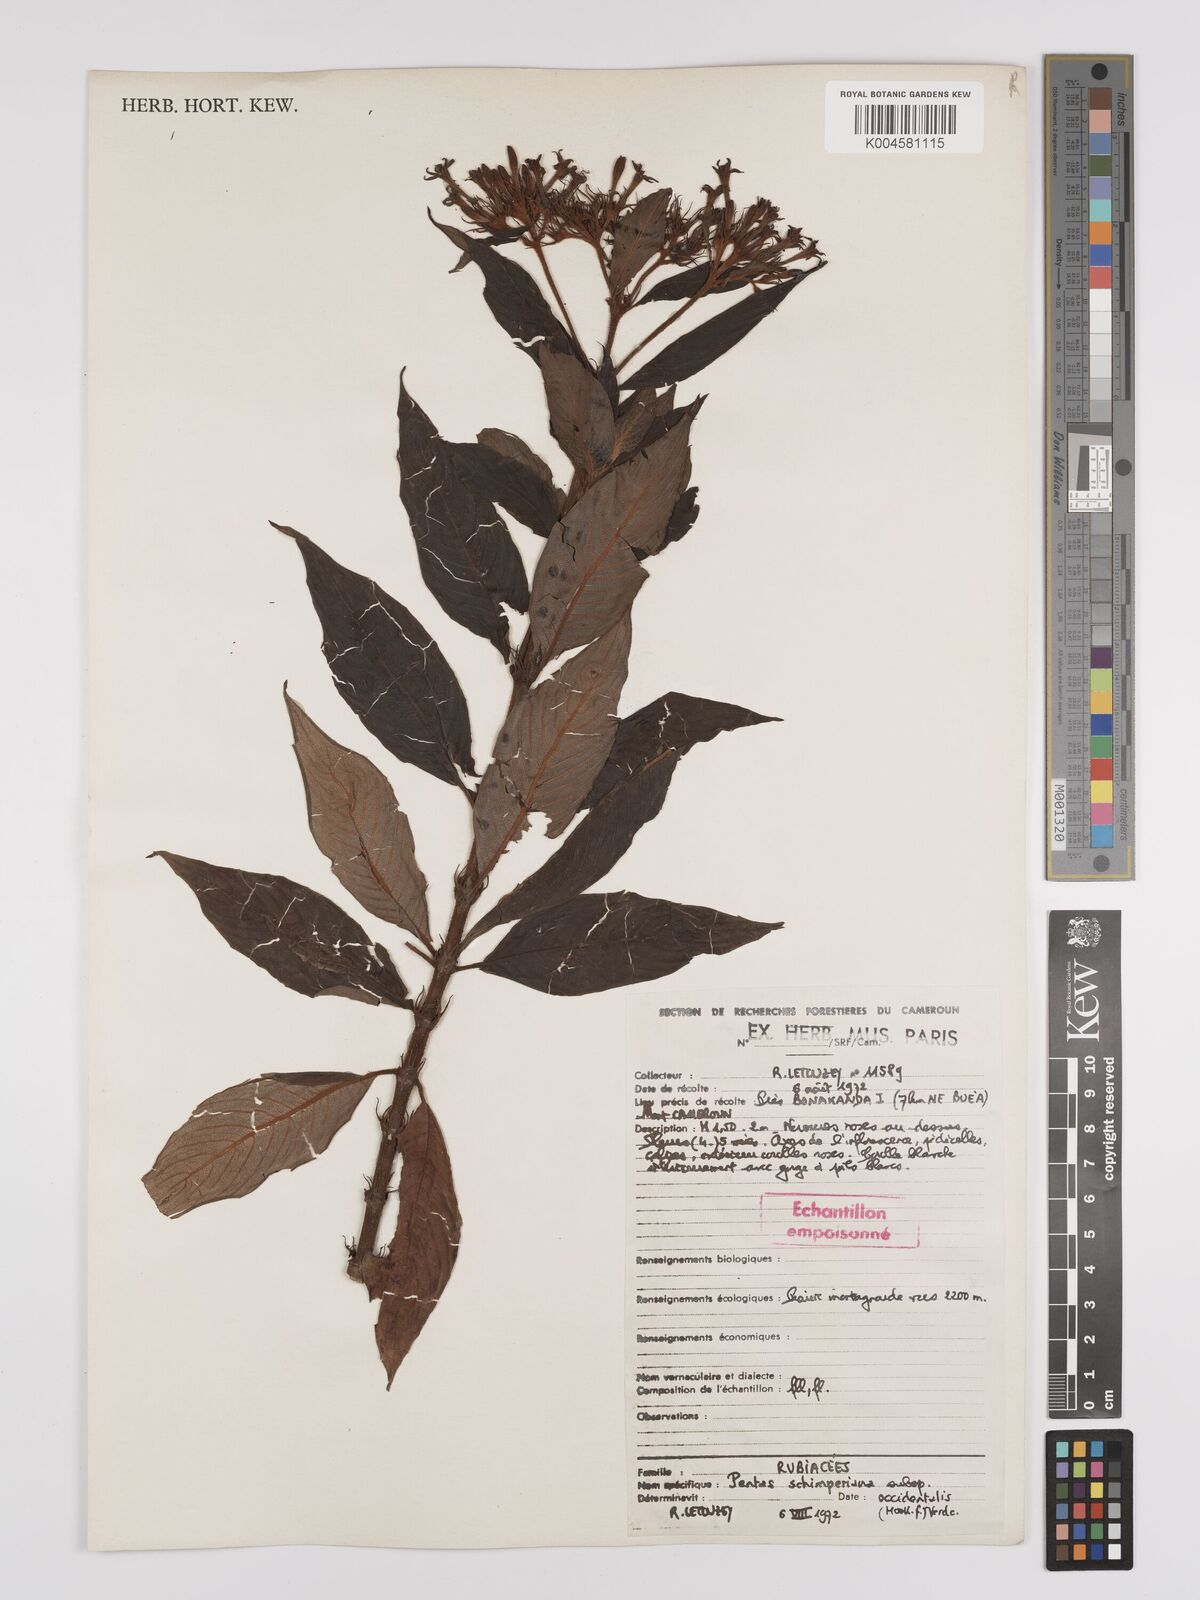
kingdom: Plantae
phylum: Tracheophyta
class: Magnoliopsida
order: Gentianales
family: Rubiaceae
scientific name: Rubiaceae
